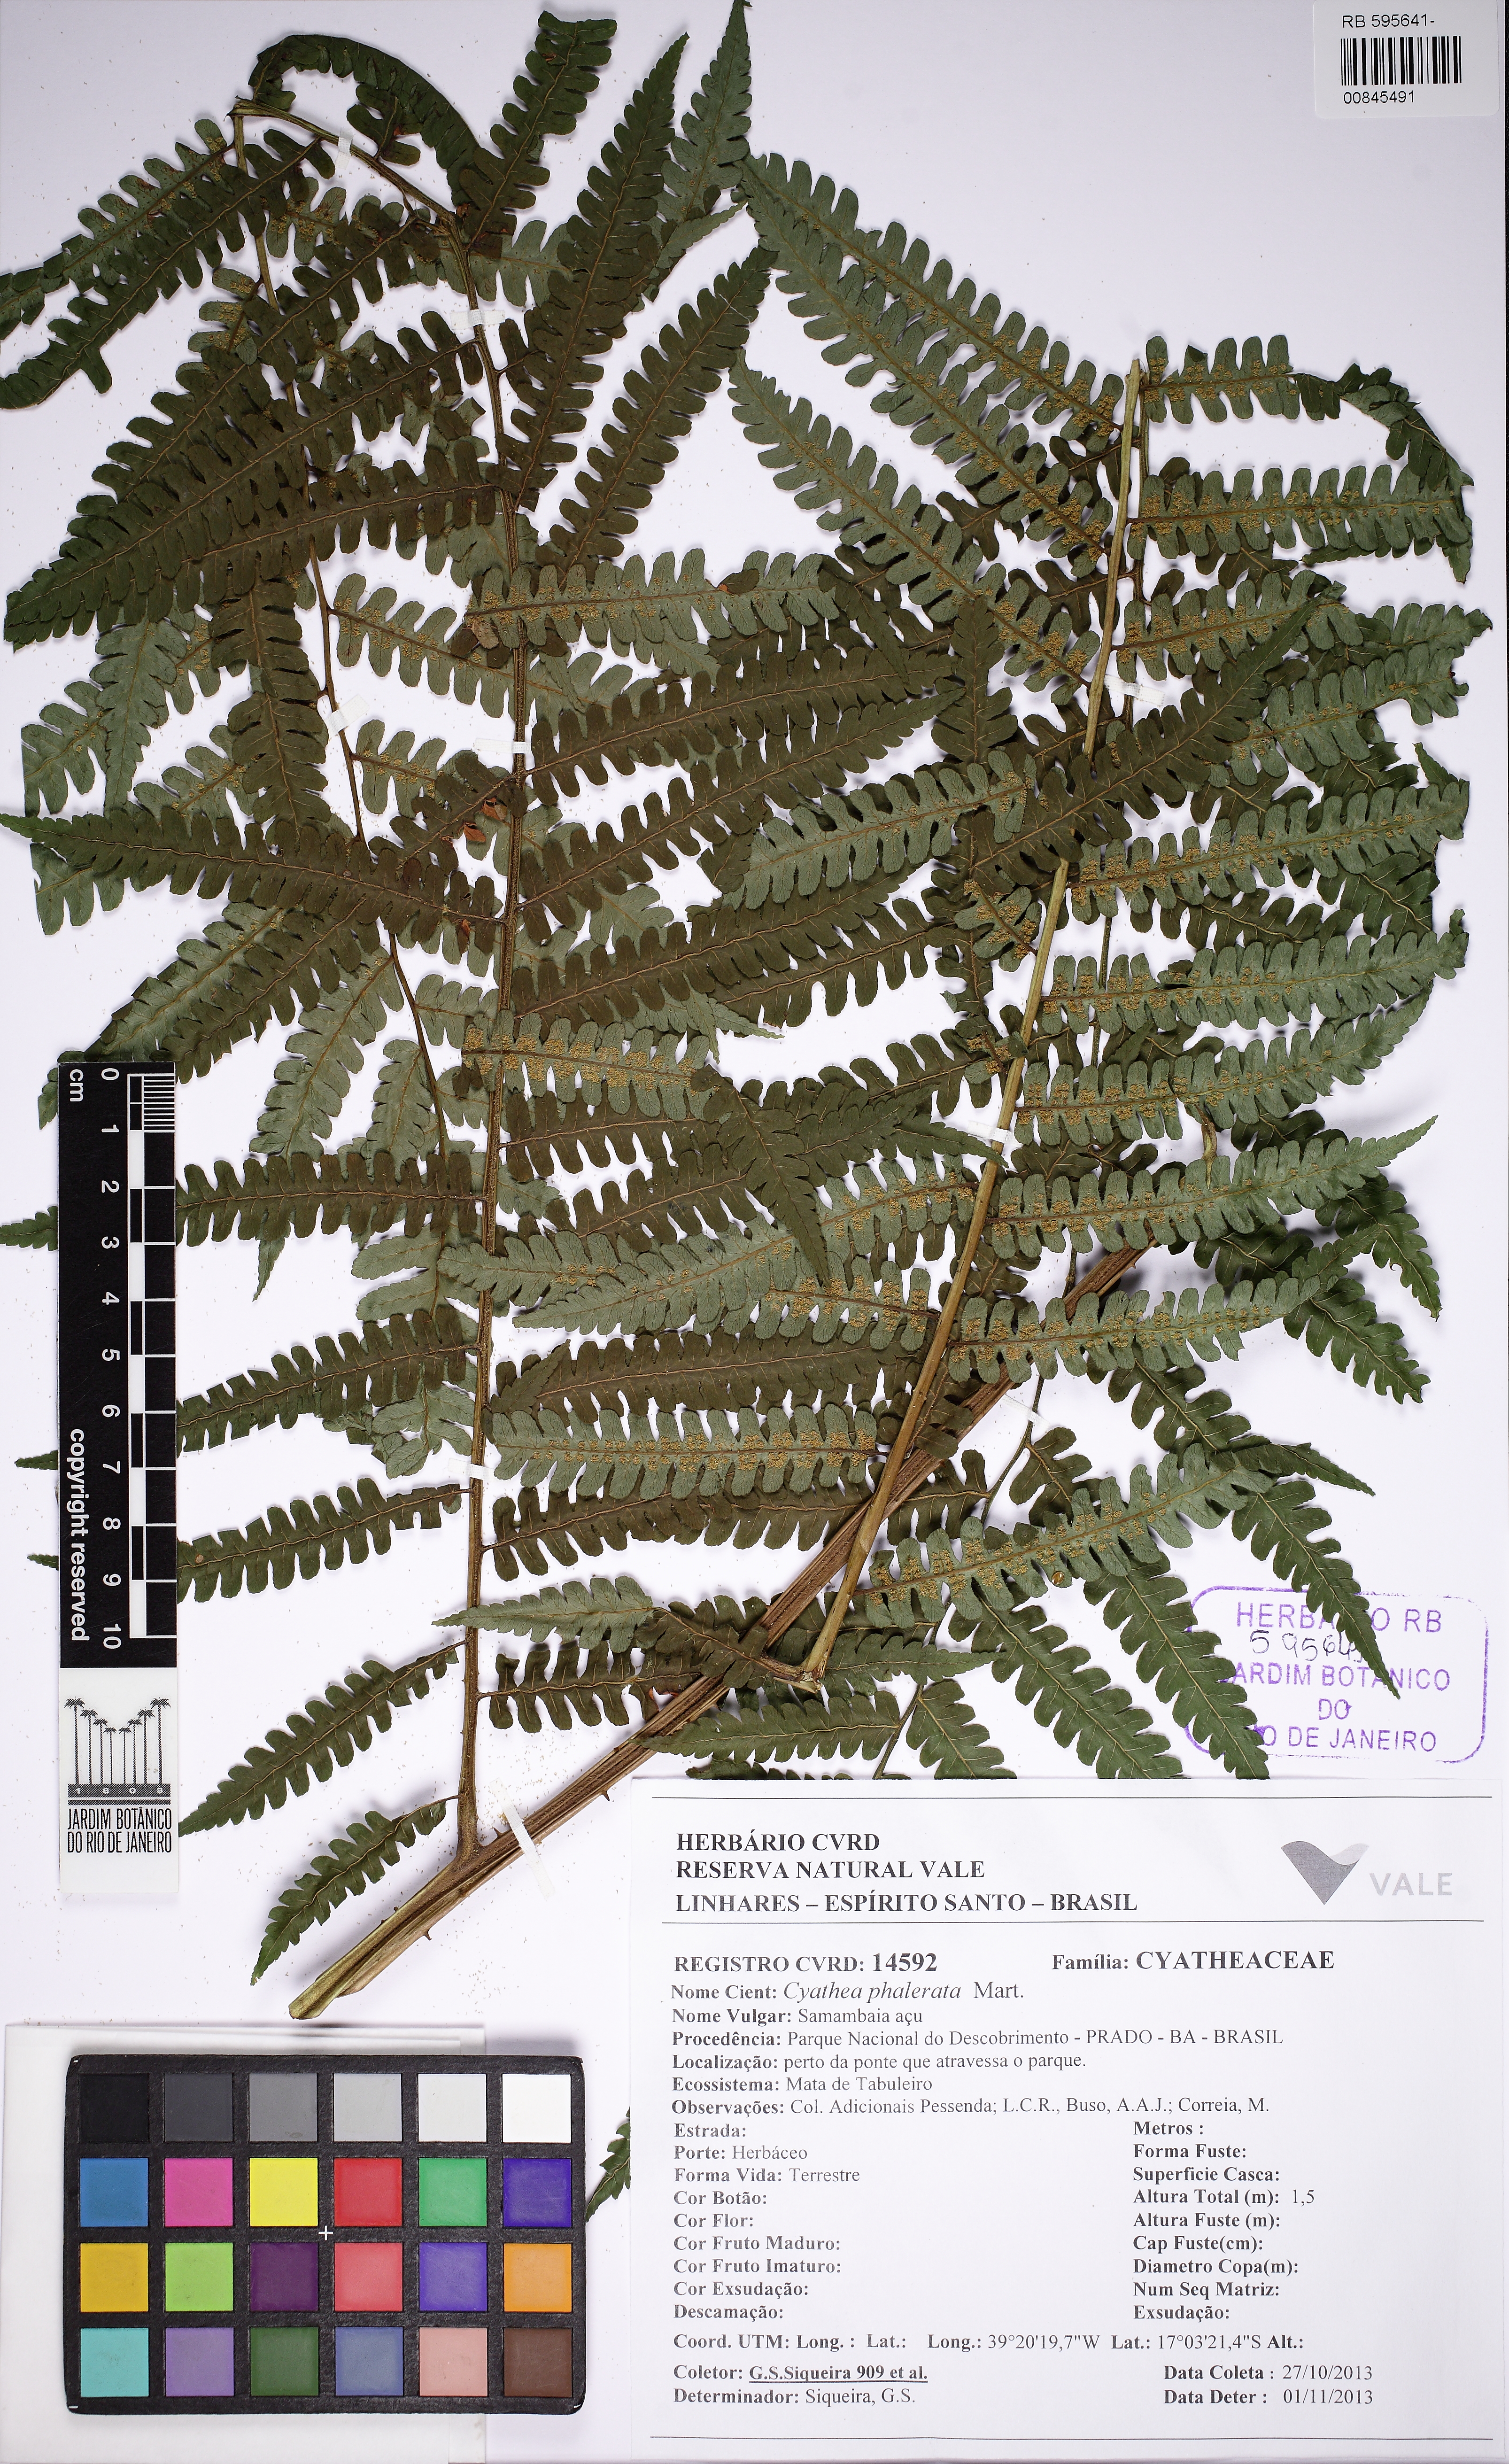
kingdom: Plantae
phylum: Tracheophyta
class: Polypodiopsida
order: Cyatheales
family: Cyatheaceae
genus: Cyathea
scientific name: Cyathea phalerata
